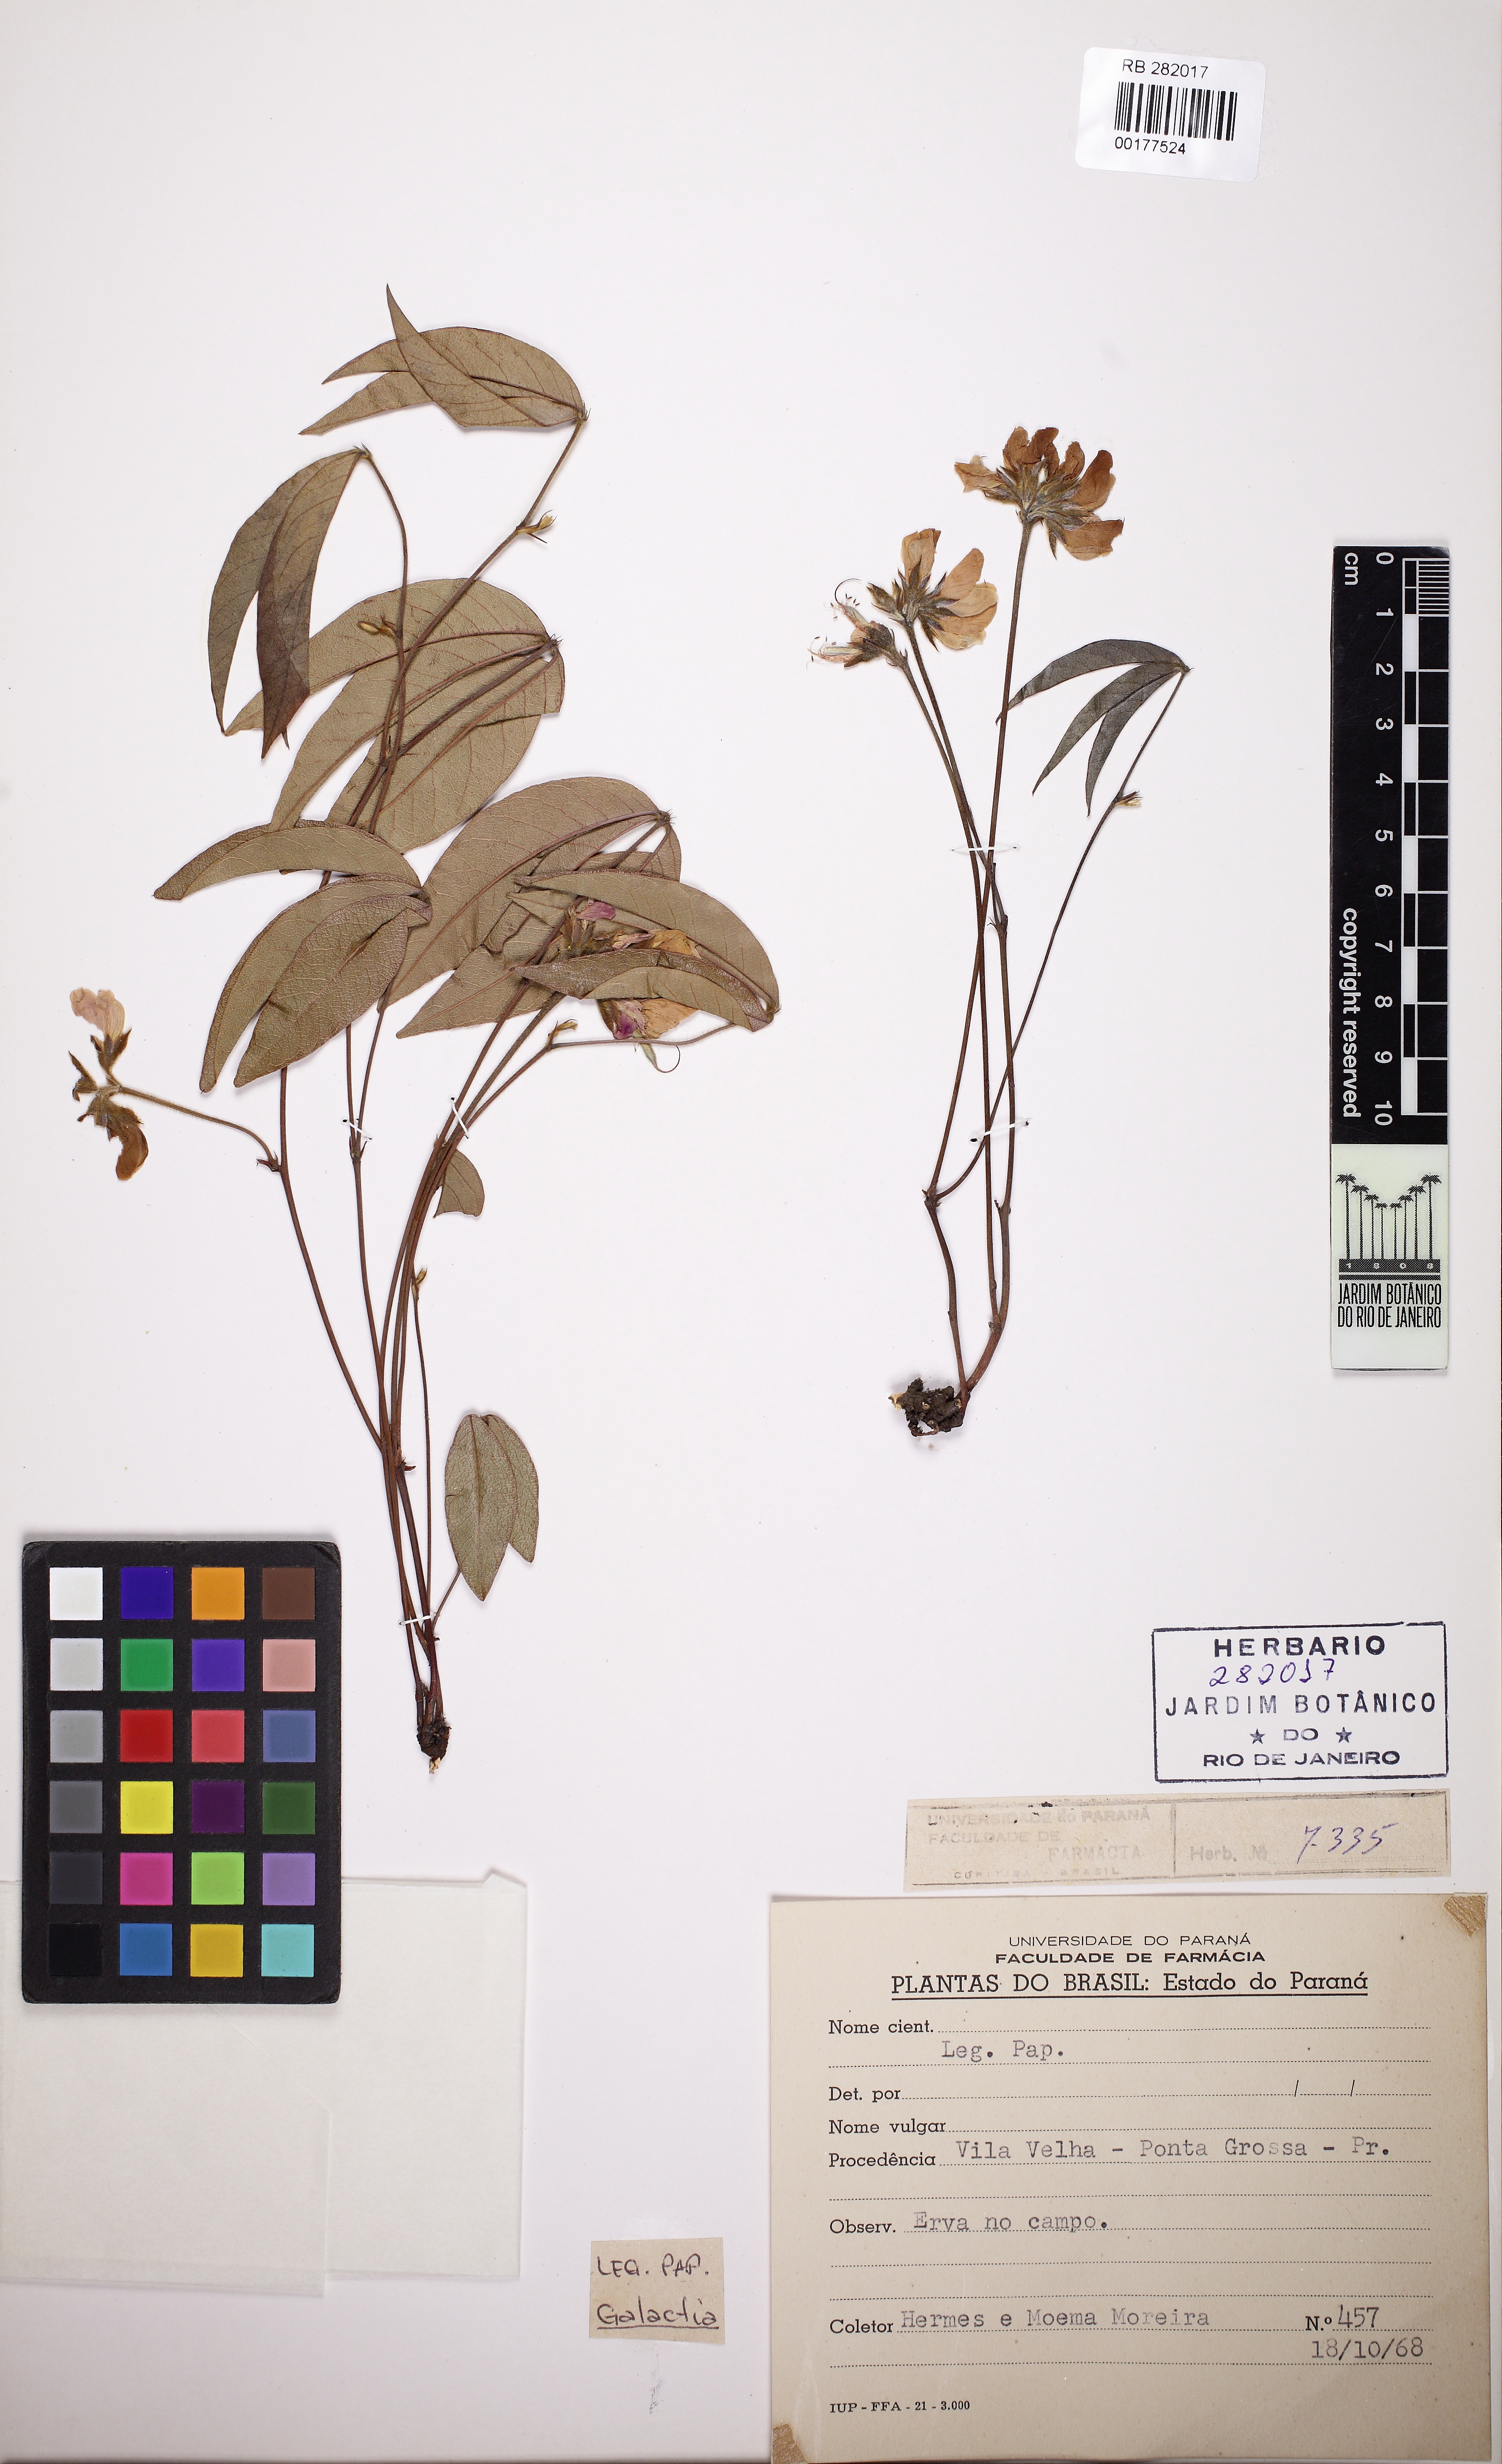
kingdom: Plantae
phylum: Tracheophyta
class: Magnoliopsida
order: Fabales
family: Fabaceae
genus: Betencourtia
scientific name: Betencourtia martii
